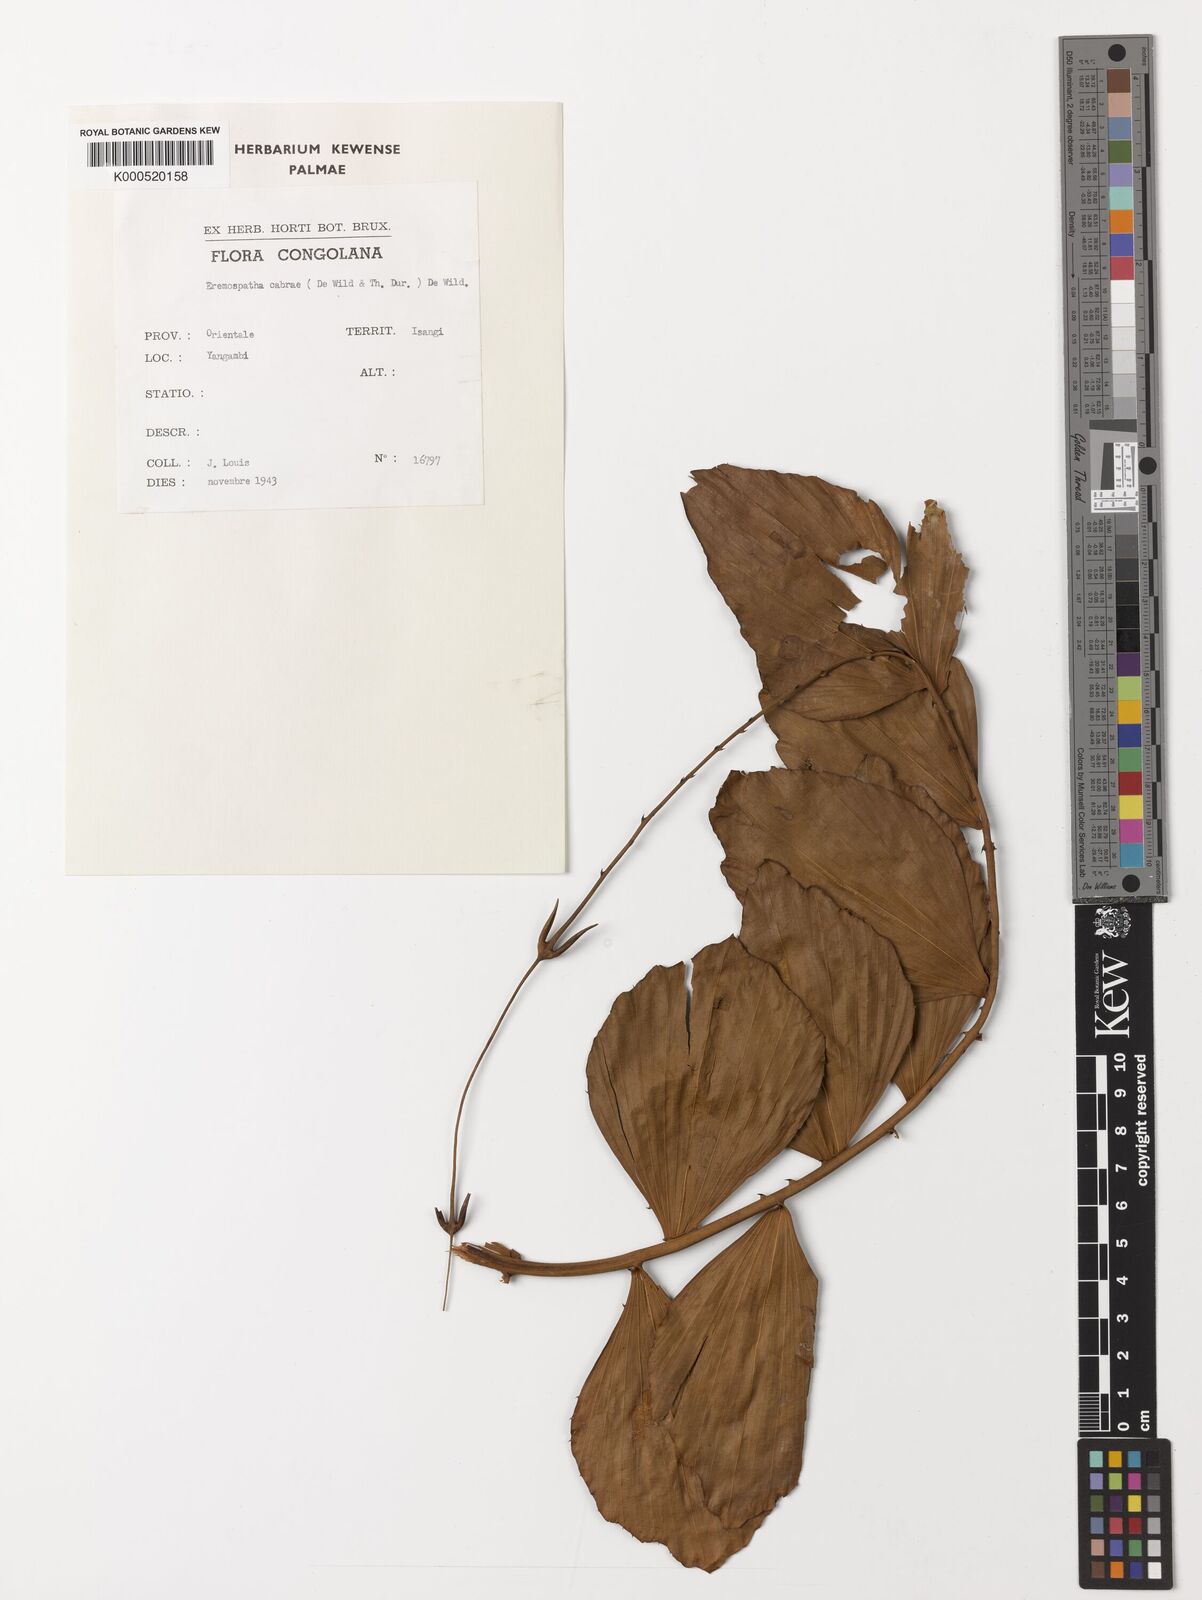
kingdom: Plantae
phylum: Tracheophyta
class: Liliopsida
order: Arecales
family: Arecaceae
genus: Eremospatha
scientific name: Eremospatha cabrae
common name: Rattan
